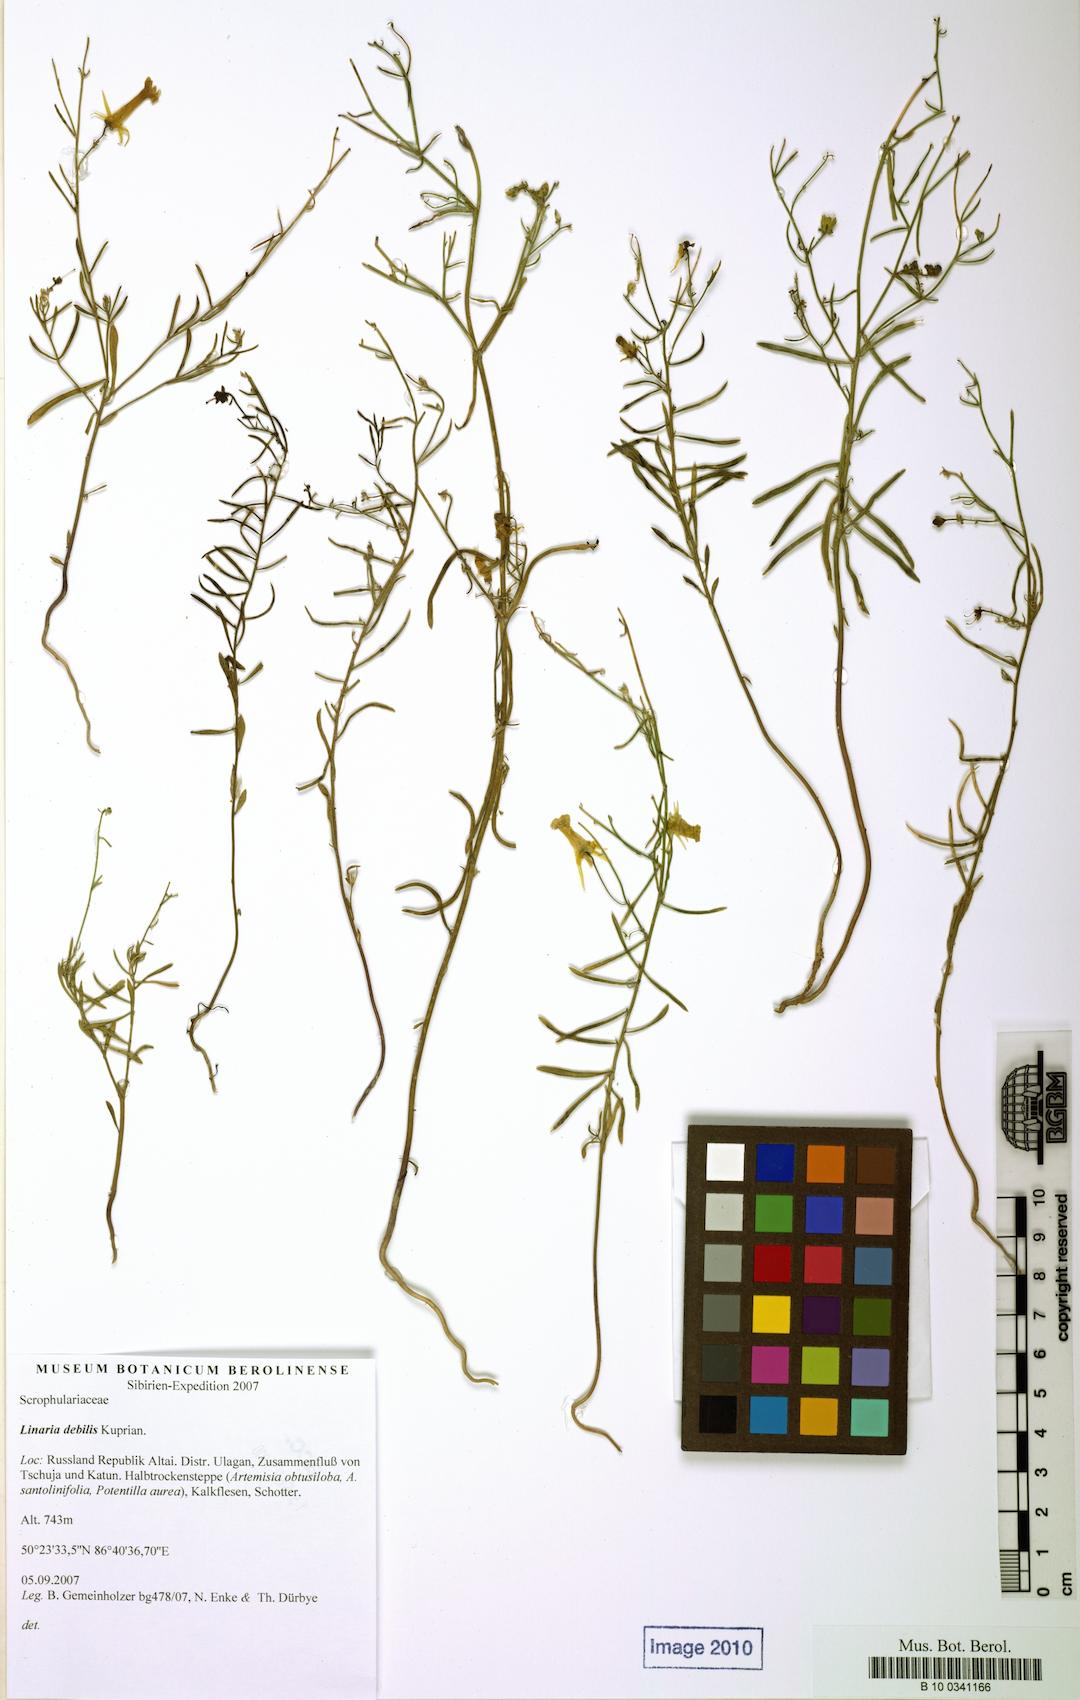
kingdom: Plantae
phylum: Tracheophyta
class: Magnoliopsida
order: Lamiales
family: Plantaginaceae
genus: Linaria
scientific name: Linaria altaica
